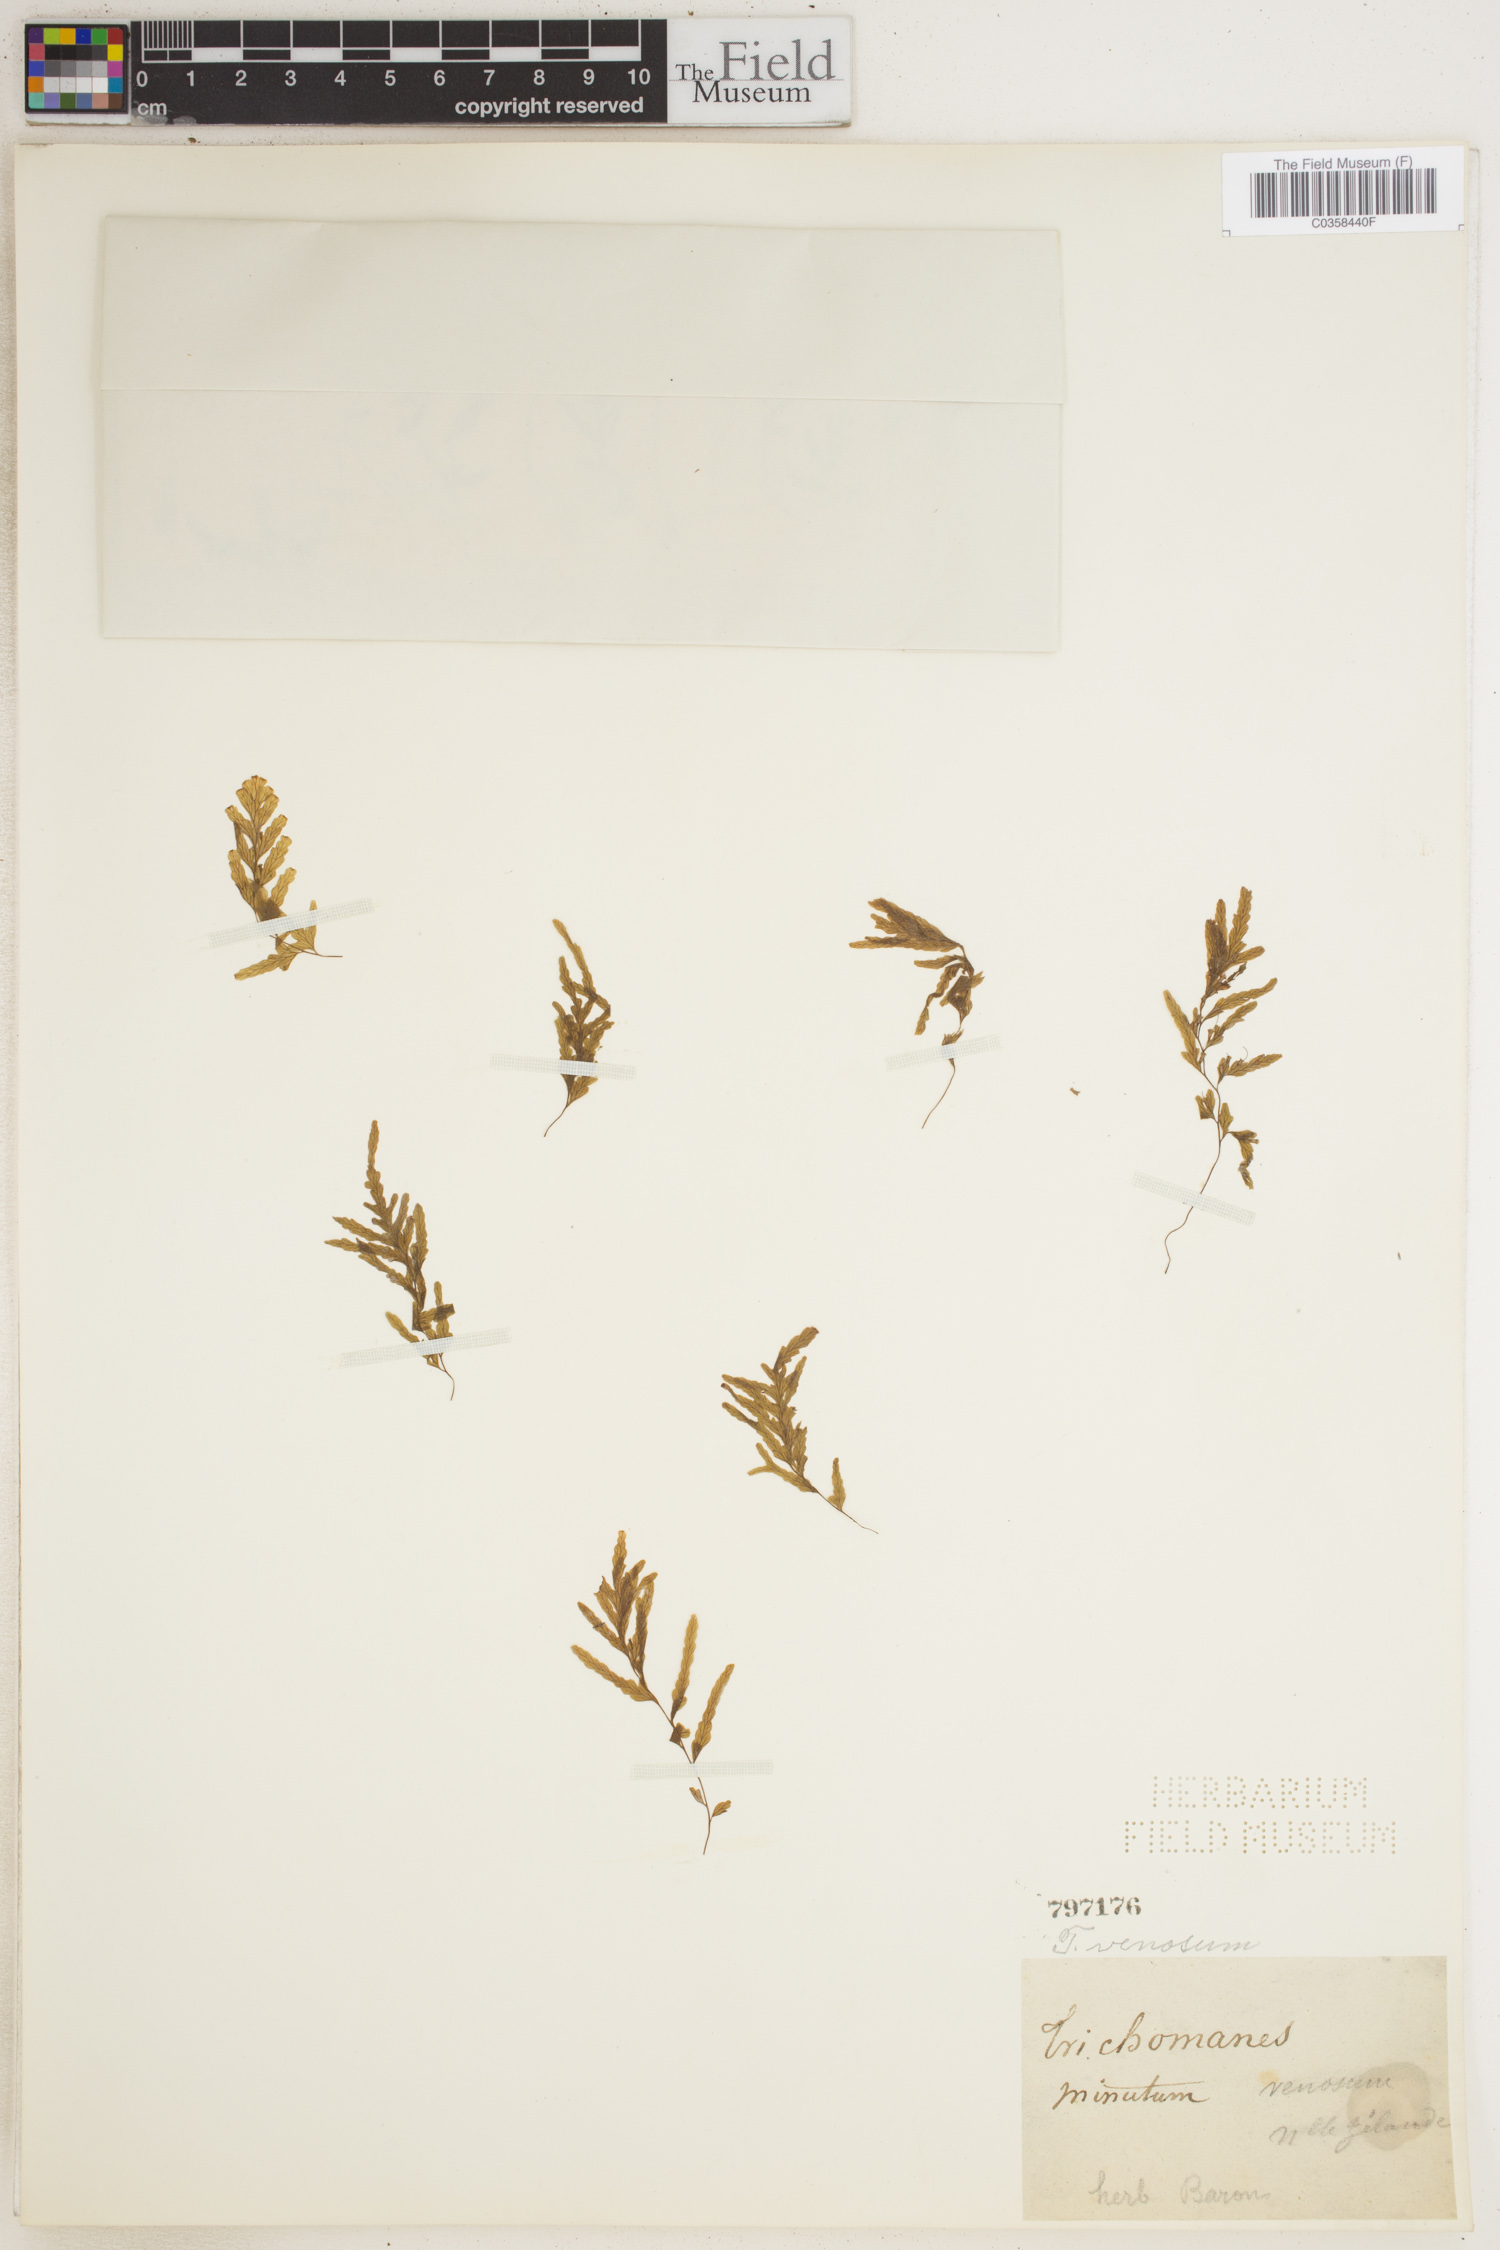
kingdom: Plantae
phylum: Tracheophyta
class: Polypodiopsida
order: Hymenophyllales
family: Hymenophyllaceae
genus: Polyphlebium
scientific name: Polyphlebium venosum
